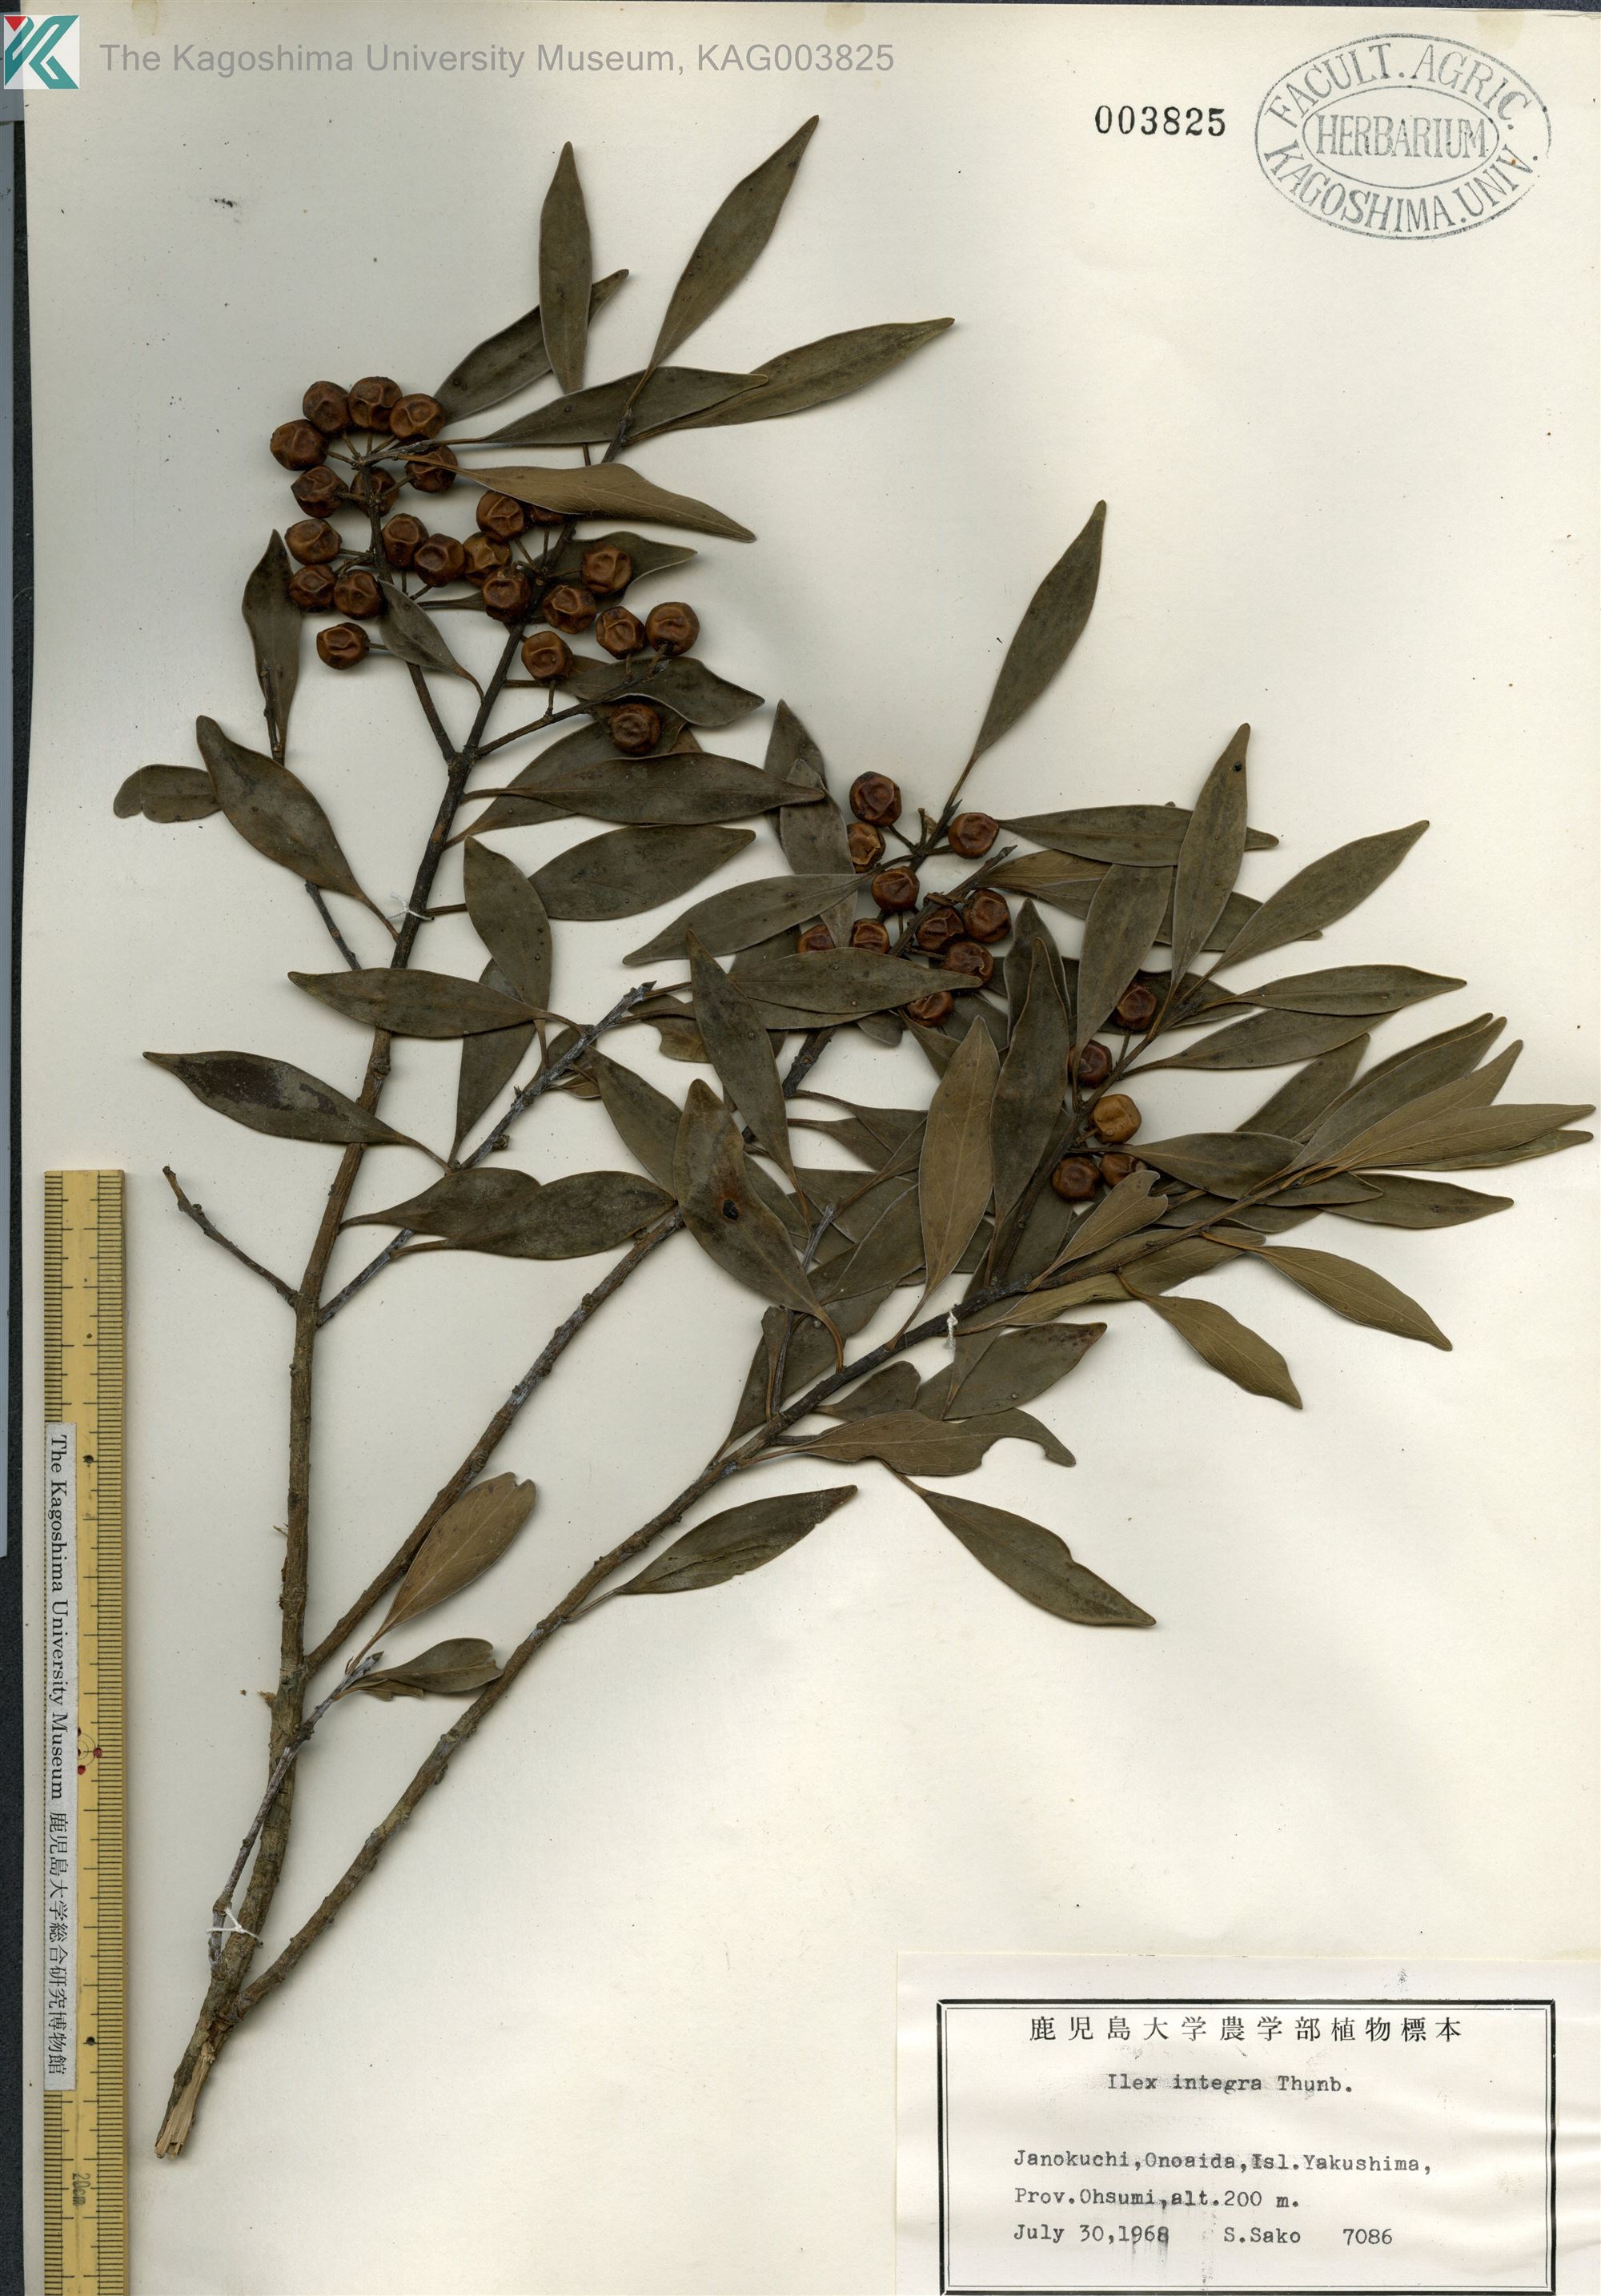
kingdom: Plantae
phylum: Tracheophyta
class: Magnoliopsida
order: Aquifoliales
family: Aquifoliaceae
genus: Ilex
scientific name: Ilex integra
